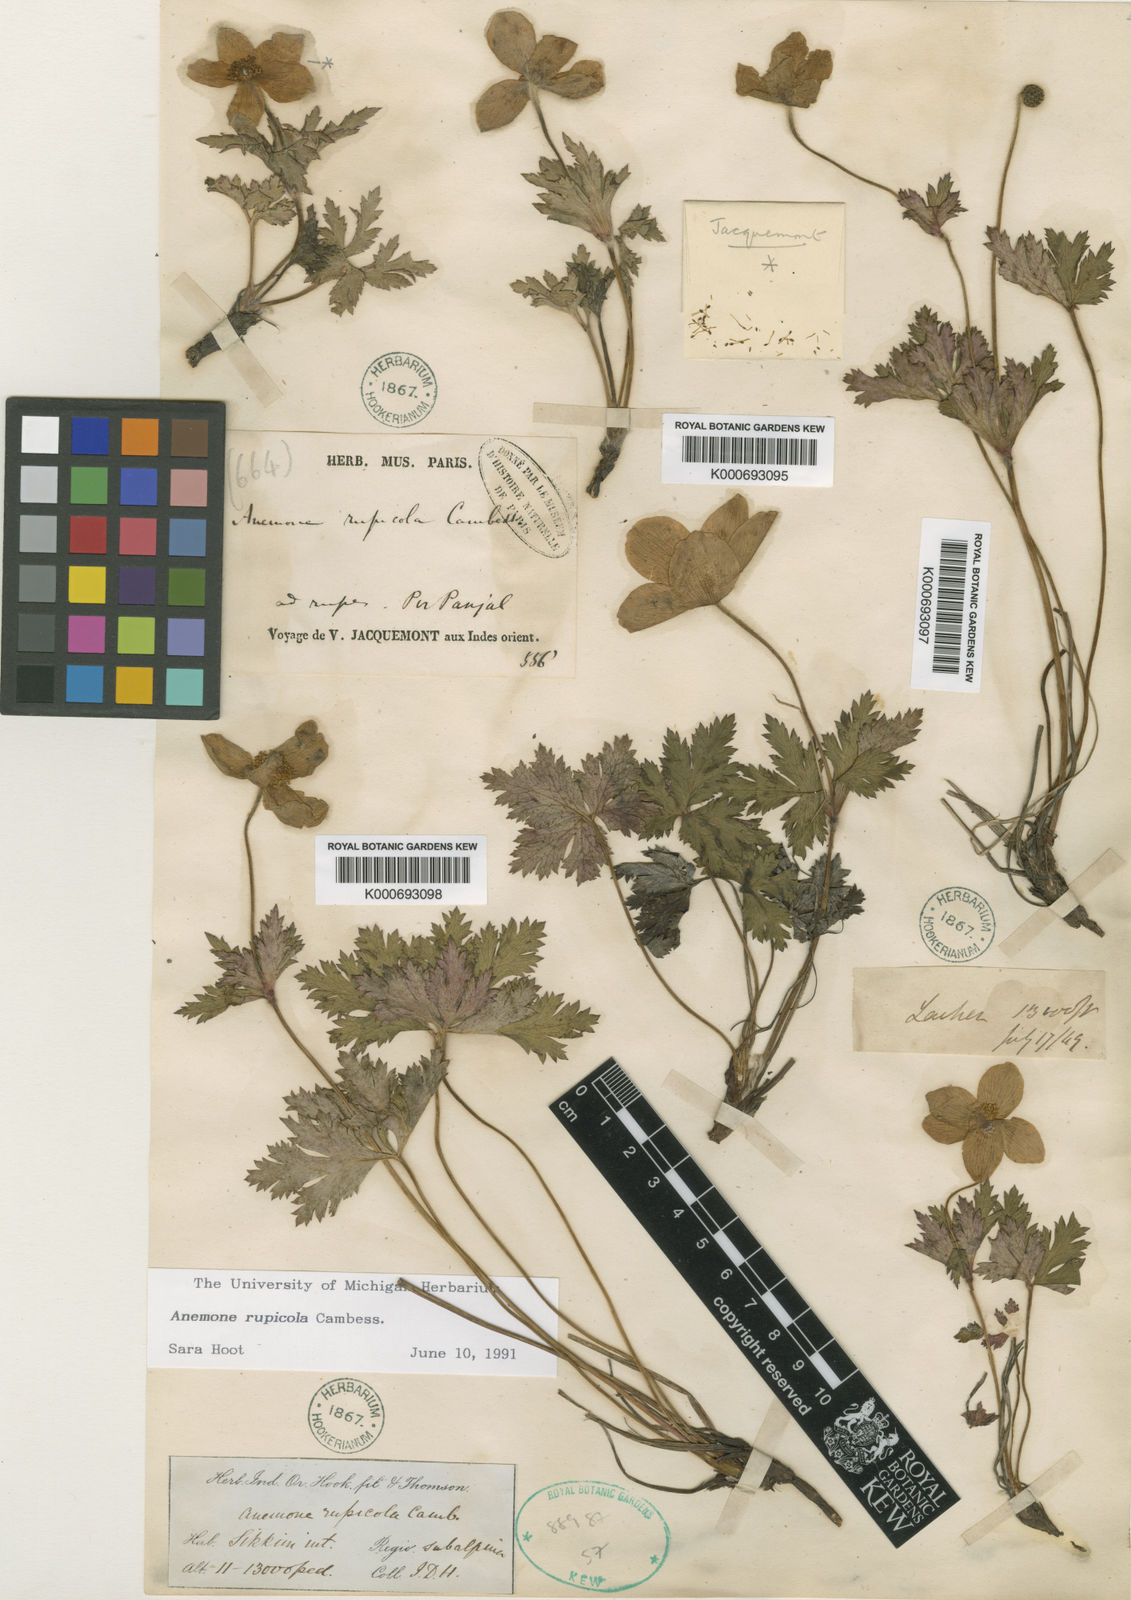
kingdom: Plantae
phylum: Tracheophyta
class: Magnoliopsida
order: Ranunculales
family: Ranunculaceae
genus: Eriocapitella
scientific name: Eriocapitella rupicola
